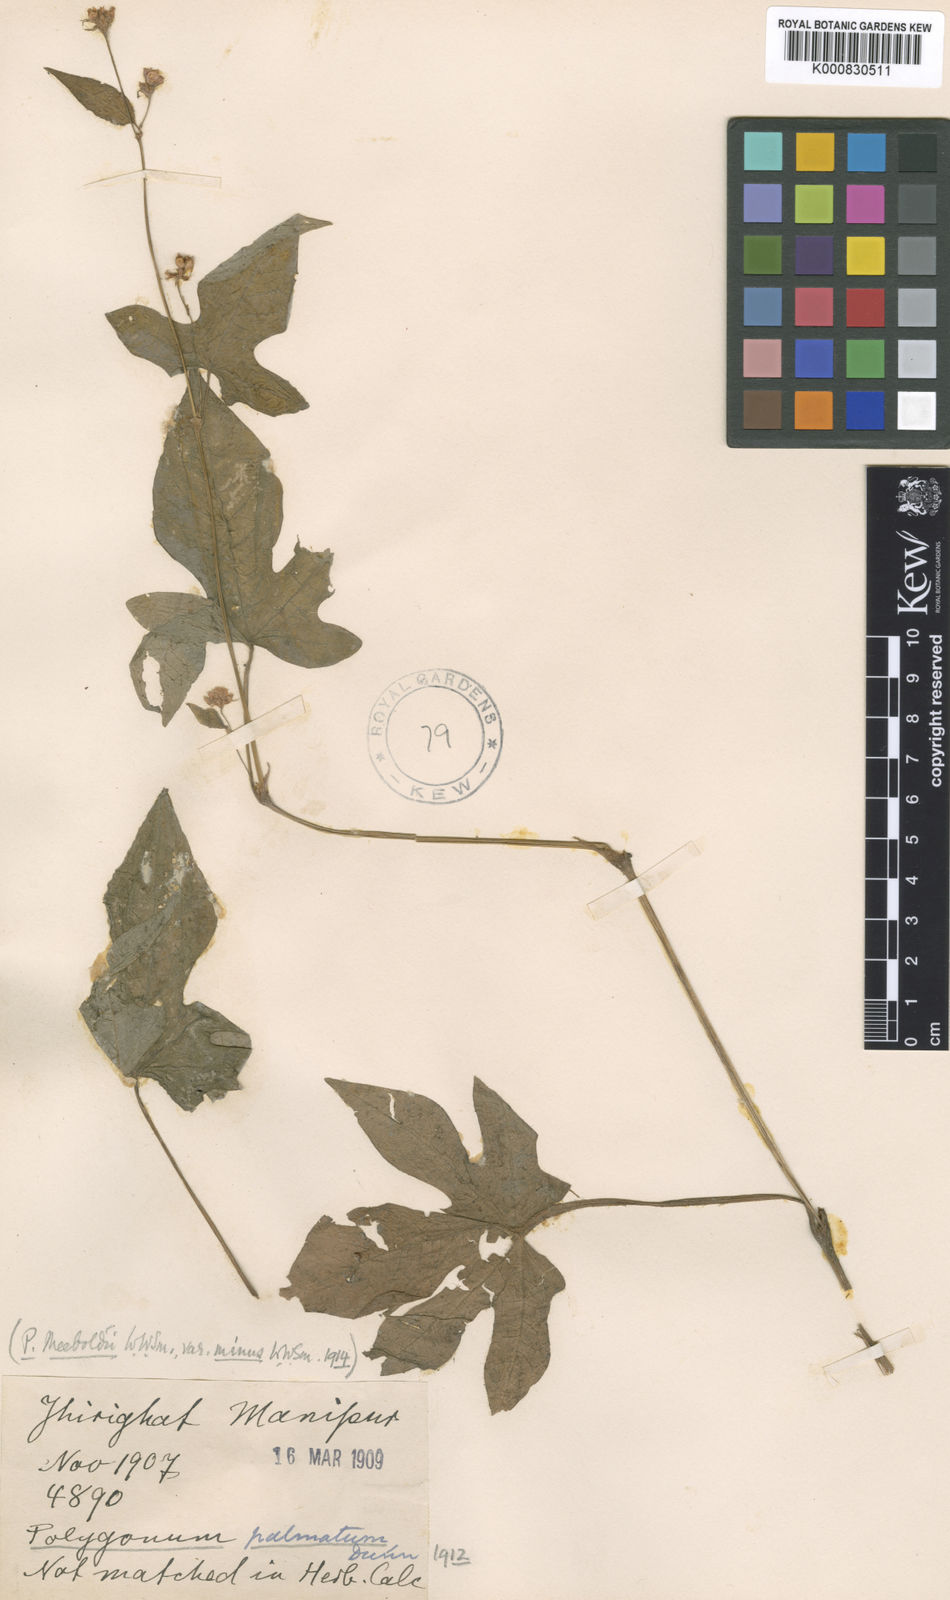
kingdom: Plantae
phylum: Tracheophyta
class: Magnoliopsida
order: Caryophyllales
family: Polygonaceae
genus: Persicaria
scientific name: Persicaria palmata
